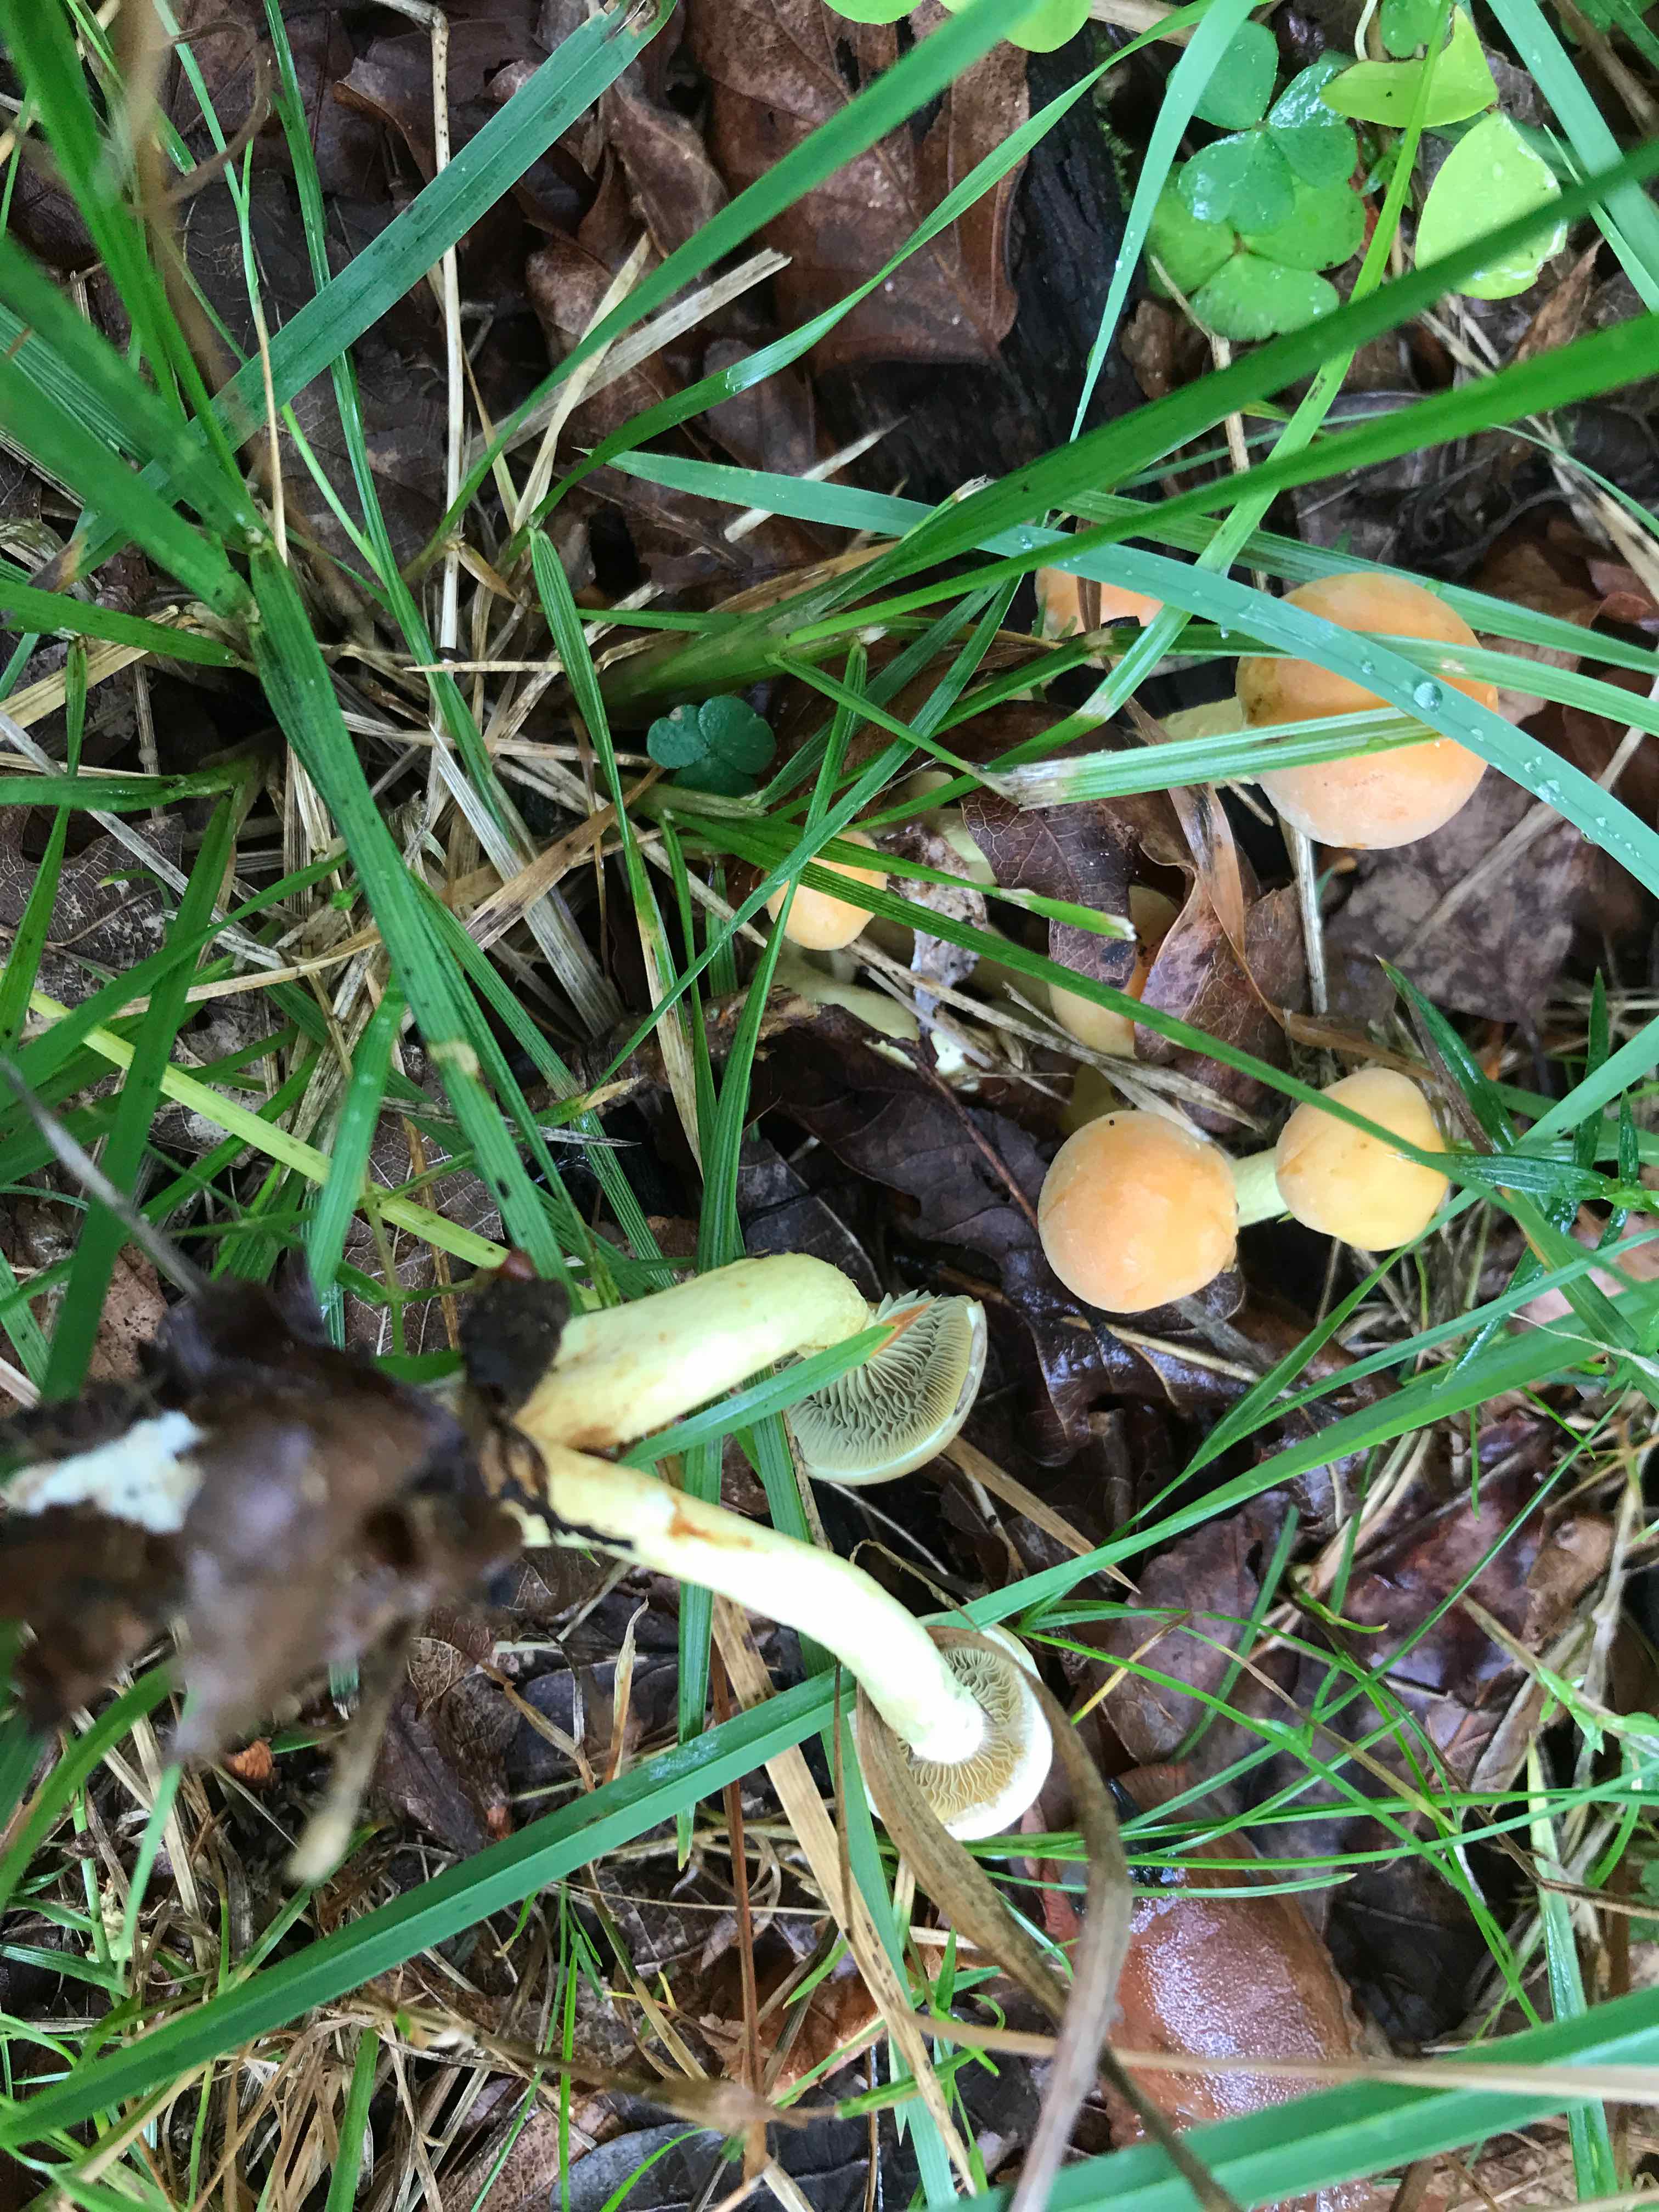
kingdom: Fungi
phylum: Basidiomycota
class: Agaricomycetes
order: Agaricales
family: Strophariaceae
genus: Hypholoma
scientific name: Hypholoma fasciculare
